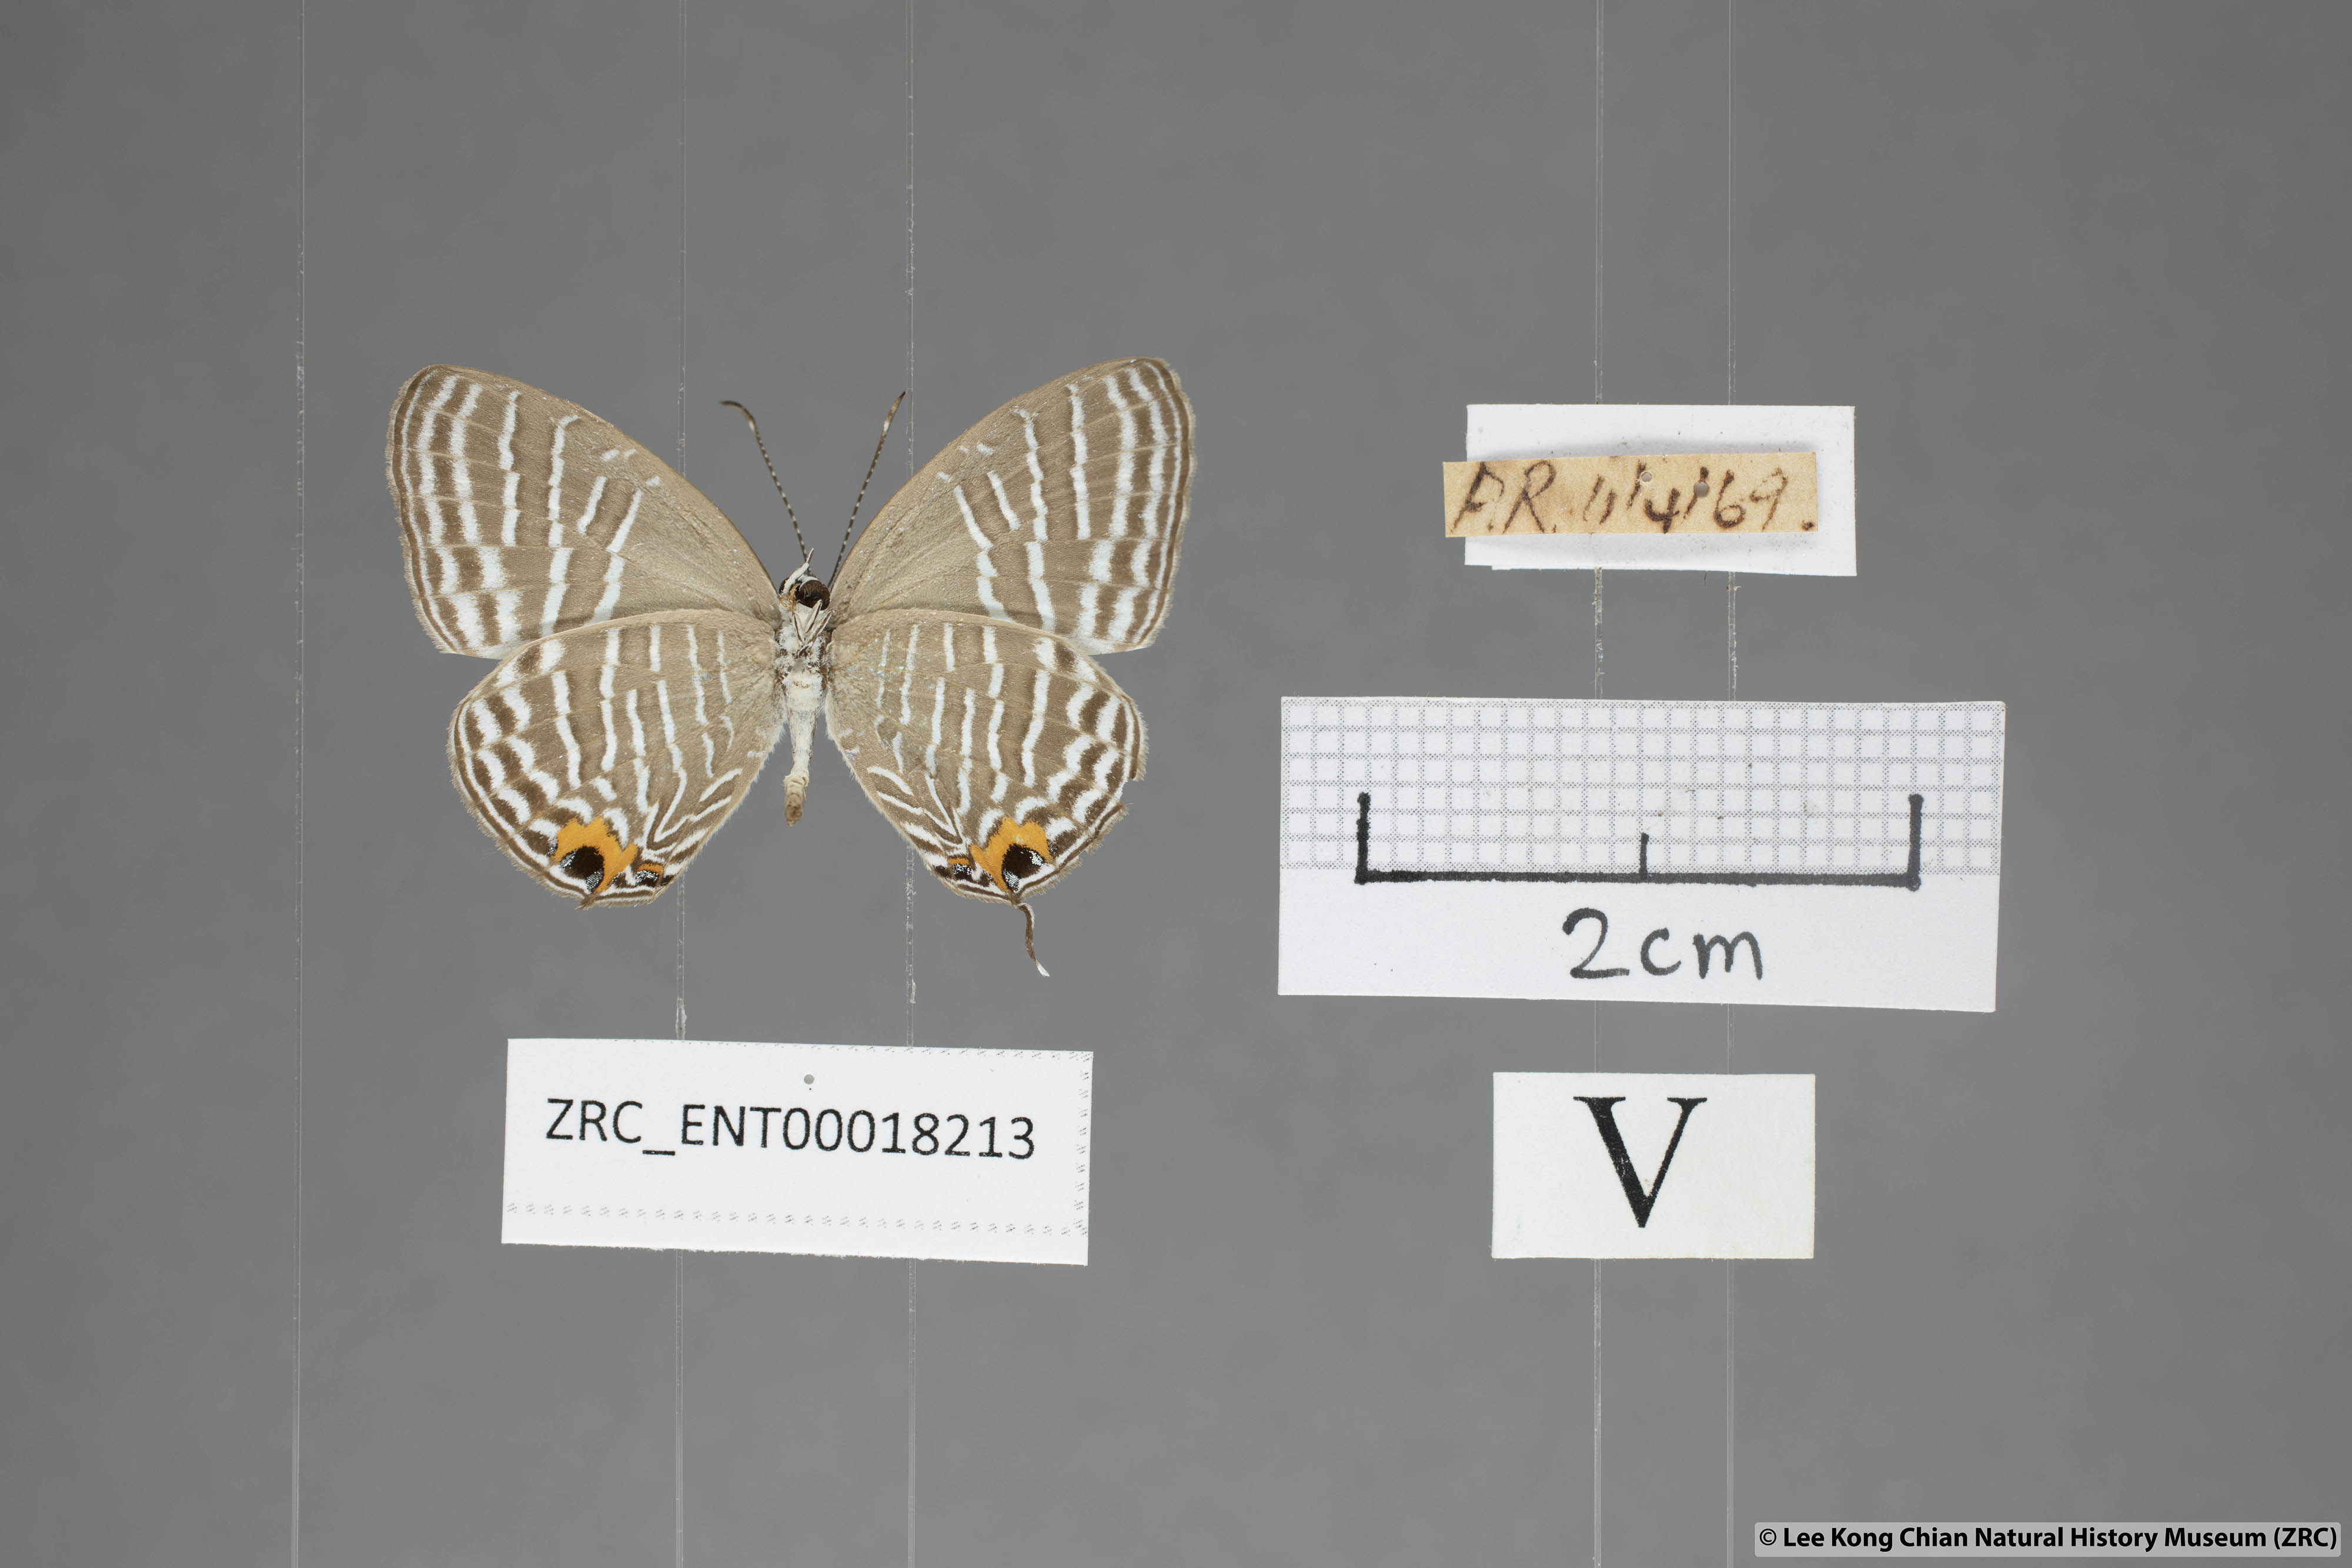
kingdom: Animalia
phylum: Arthropoda
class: Insecta
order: Lepidoptera
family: Lycaenidae
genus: Jamides
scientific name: Jamides zebra
